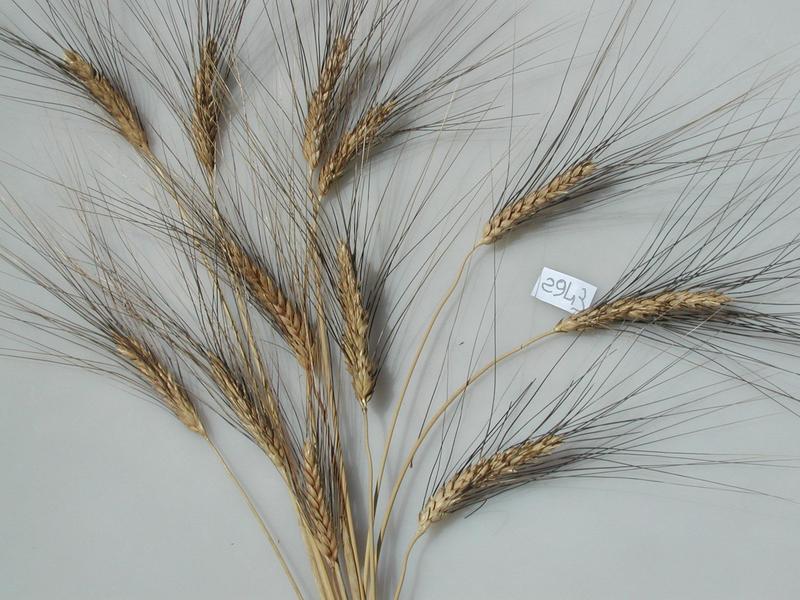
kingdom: Plantae
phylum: Tracheophyta
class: Liliopsida
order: Poales
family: Poaceae
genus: Triticum
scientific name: Triticum turgidum
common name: Wheat
